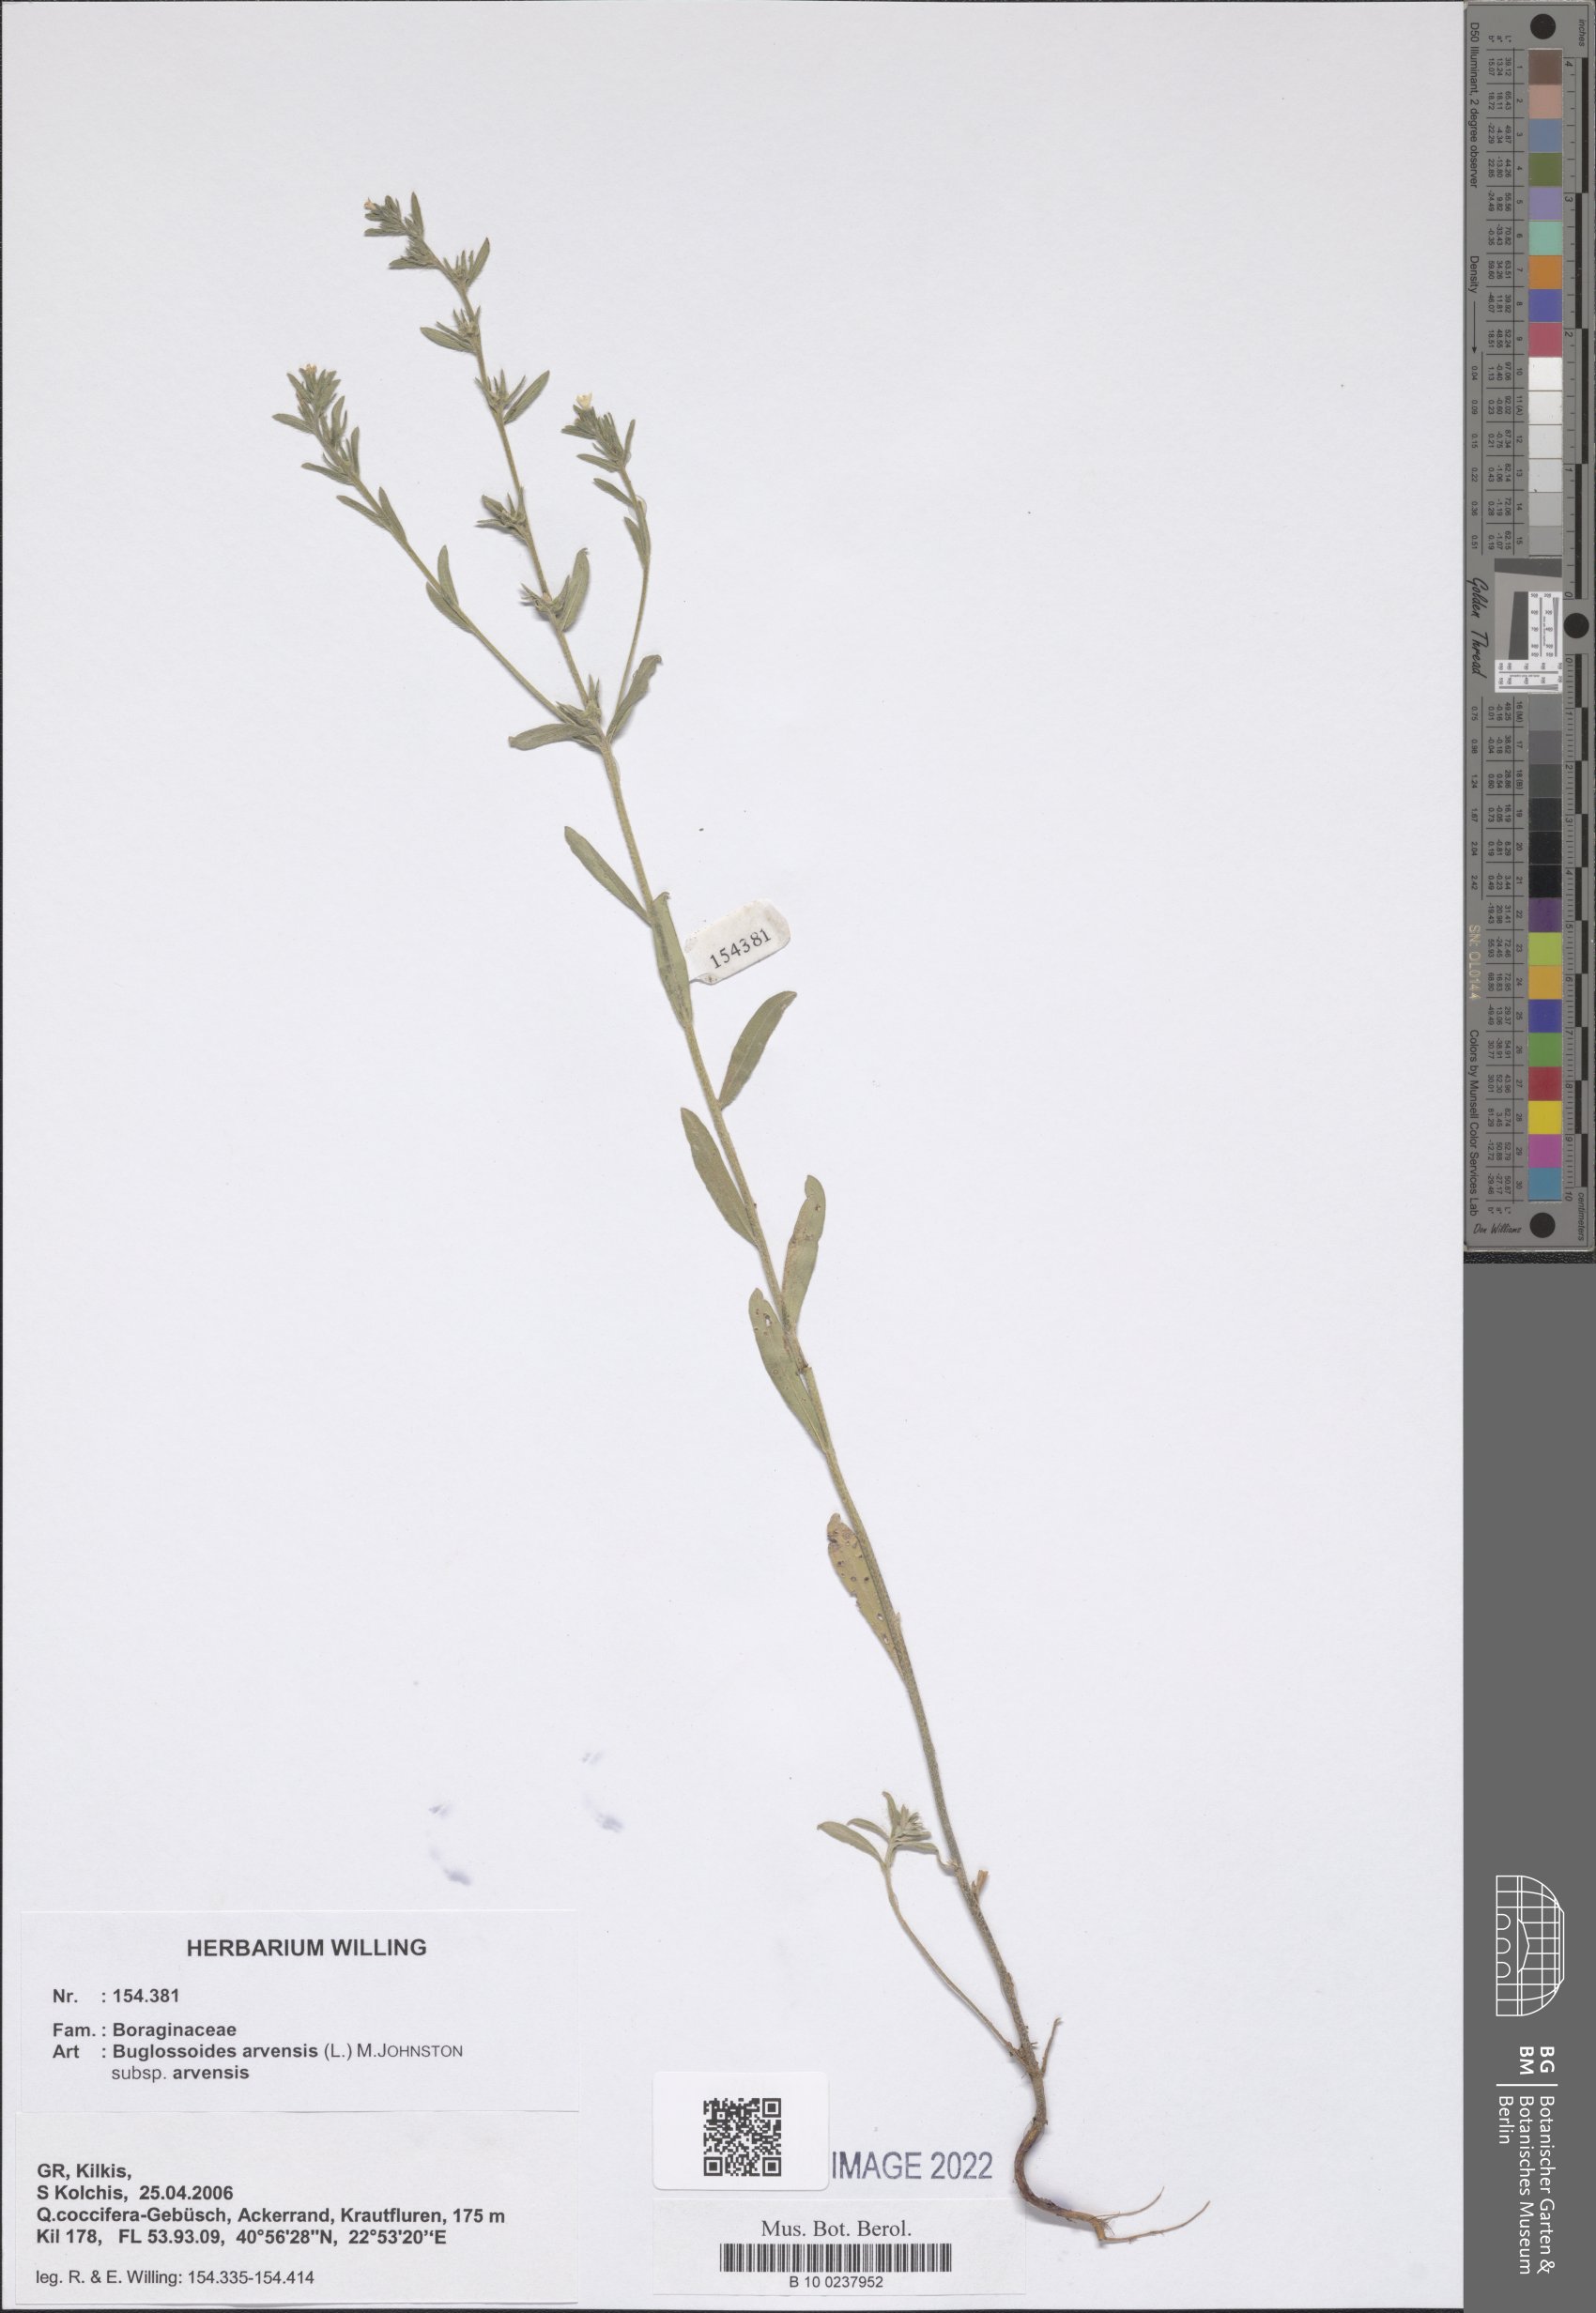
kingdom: Plantae
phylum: Tracheophyta
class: Magnoliopsida
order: Boraginales
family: Boraginaceae
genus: Buglossoides
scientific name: Buglossoides arvensis
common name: Corn gromwell
